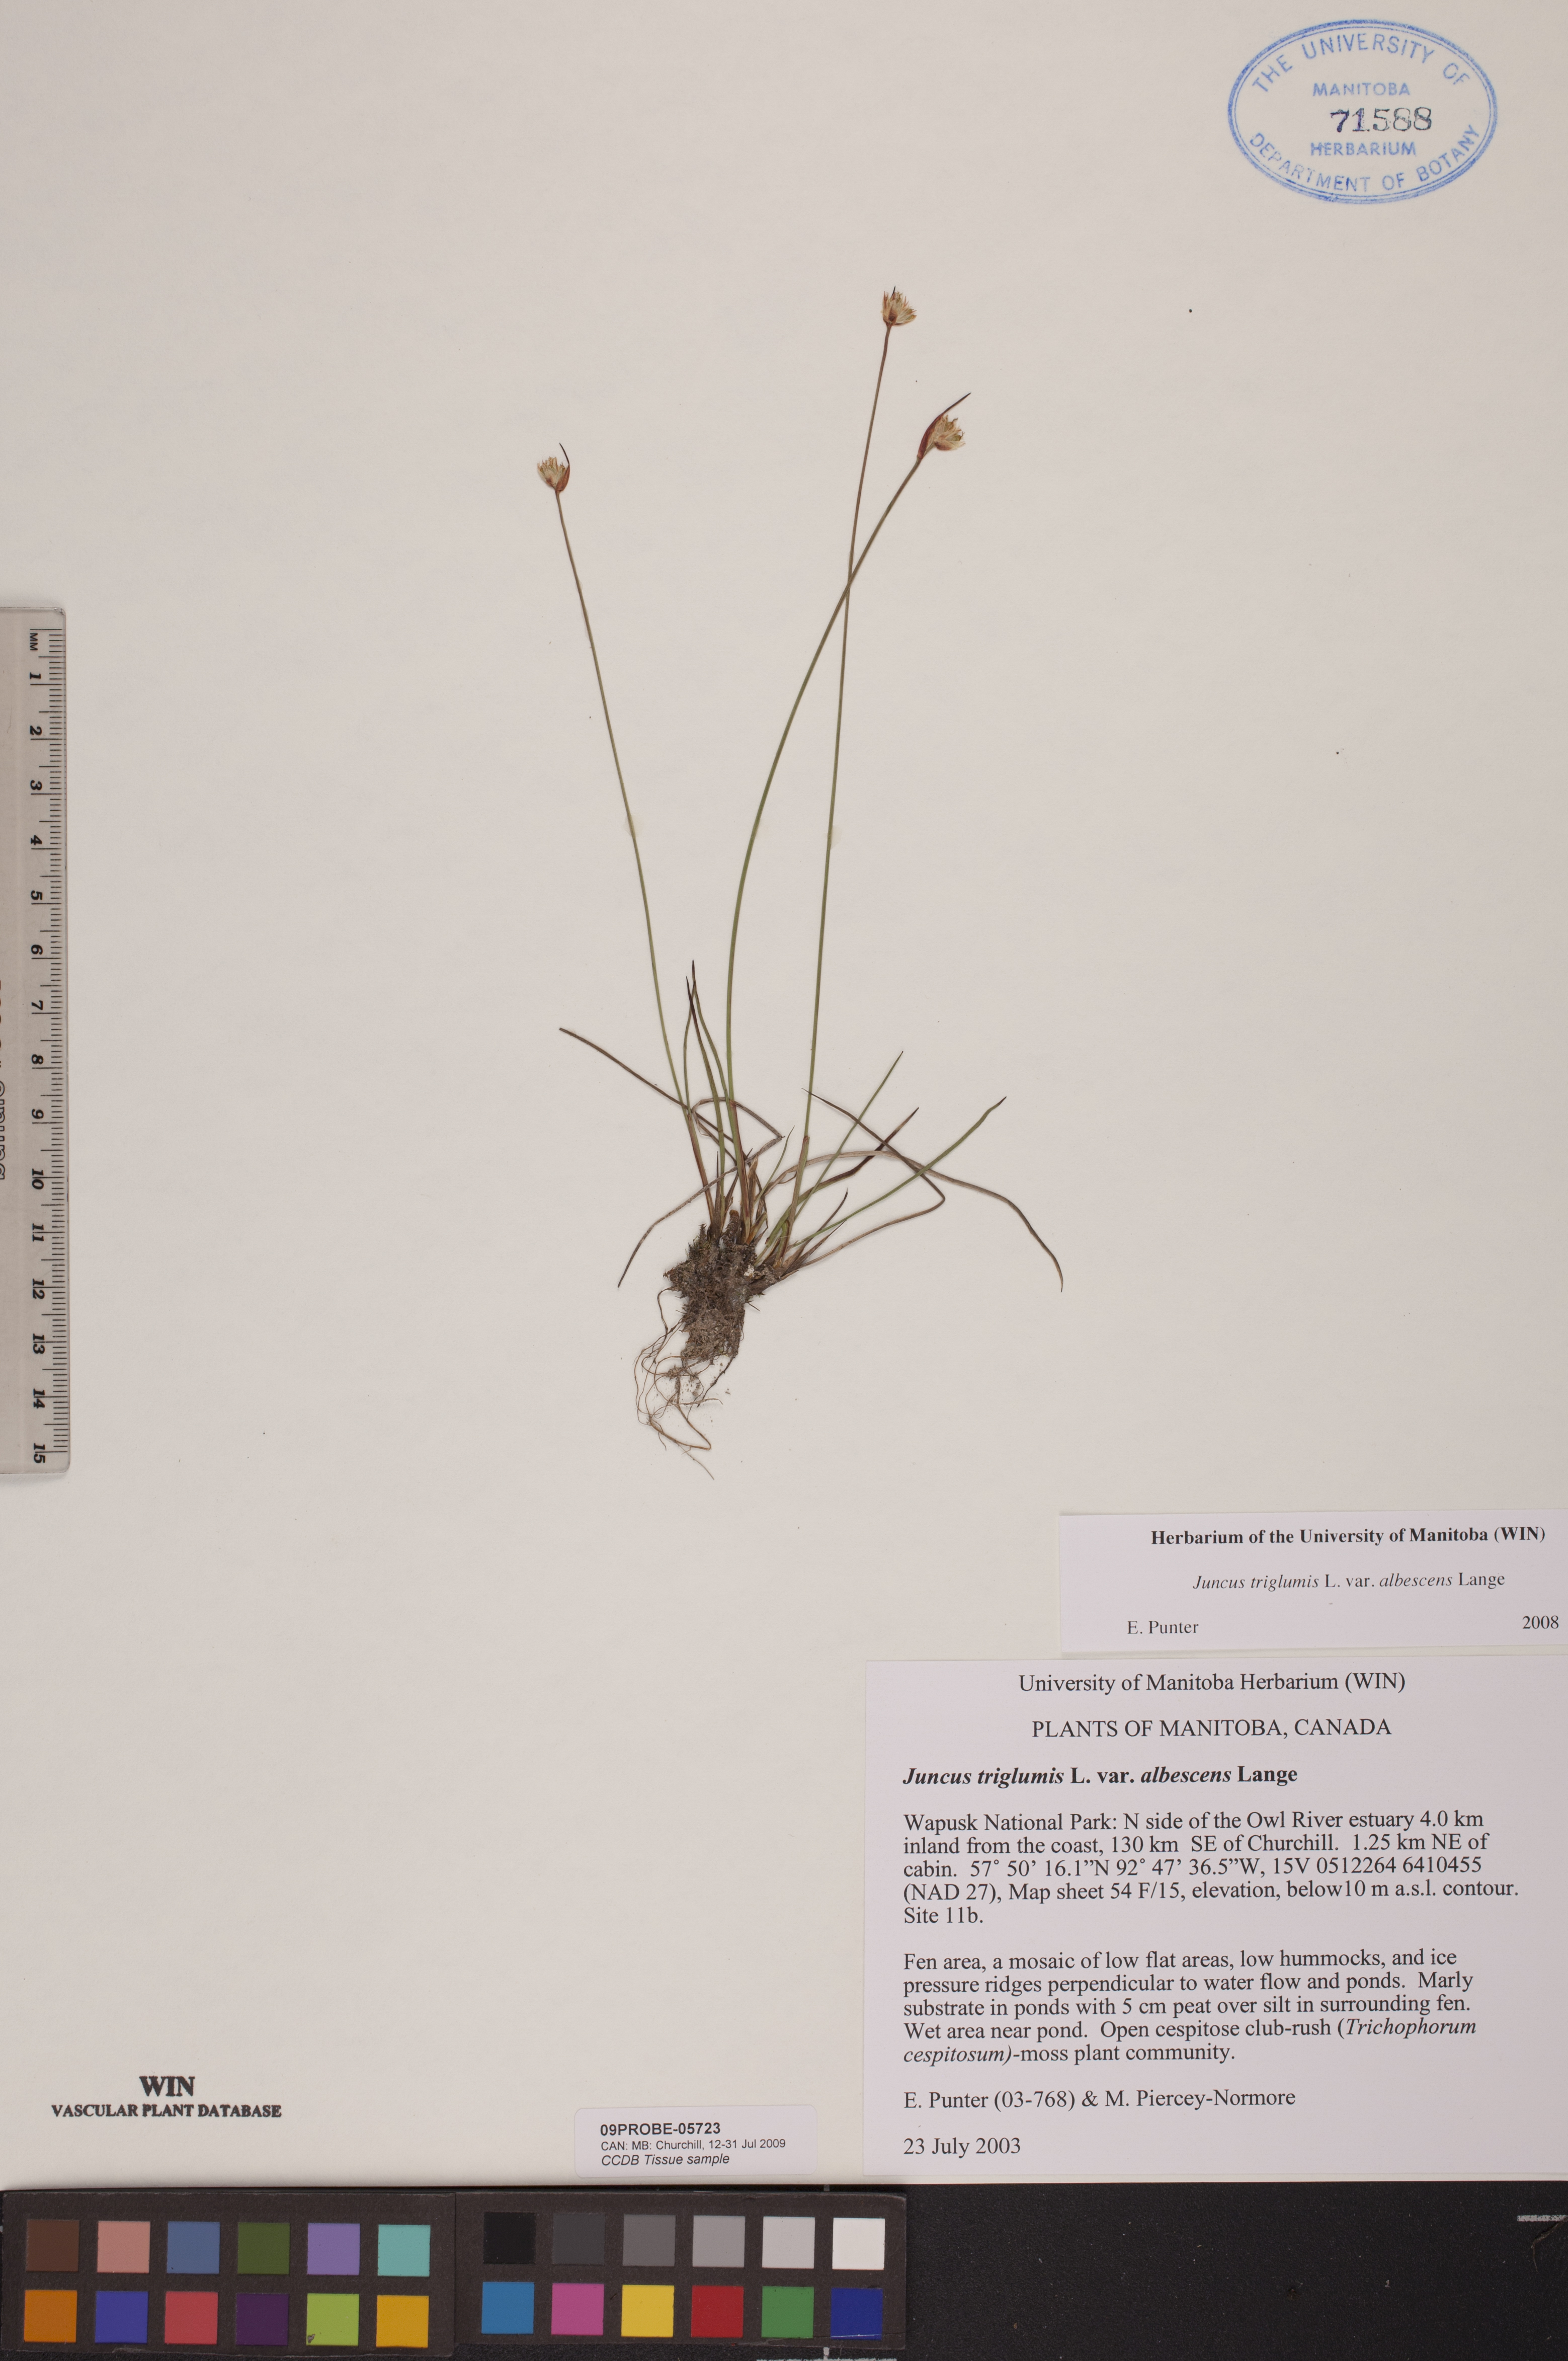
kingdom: Plantae
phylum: Tracheophyta
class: Liliopsida
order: Poales
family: Juncaceae
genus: Juncus
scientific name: Juncus albescens
